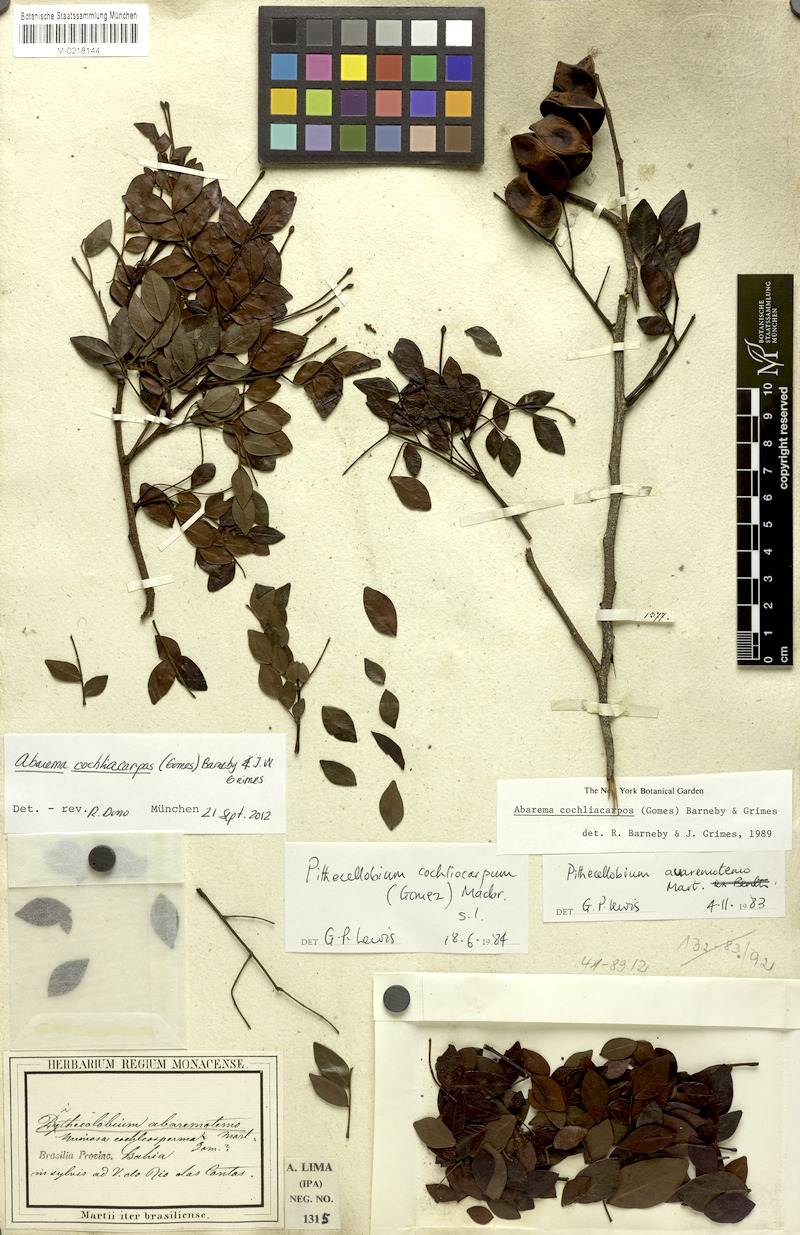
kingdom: Plantae
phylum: Tracheophyta
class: Magnoliopsida
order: Fabales
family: Fabaceae
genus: Abarema
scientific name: Abarema cochliocarpos
